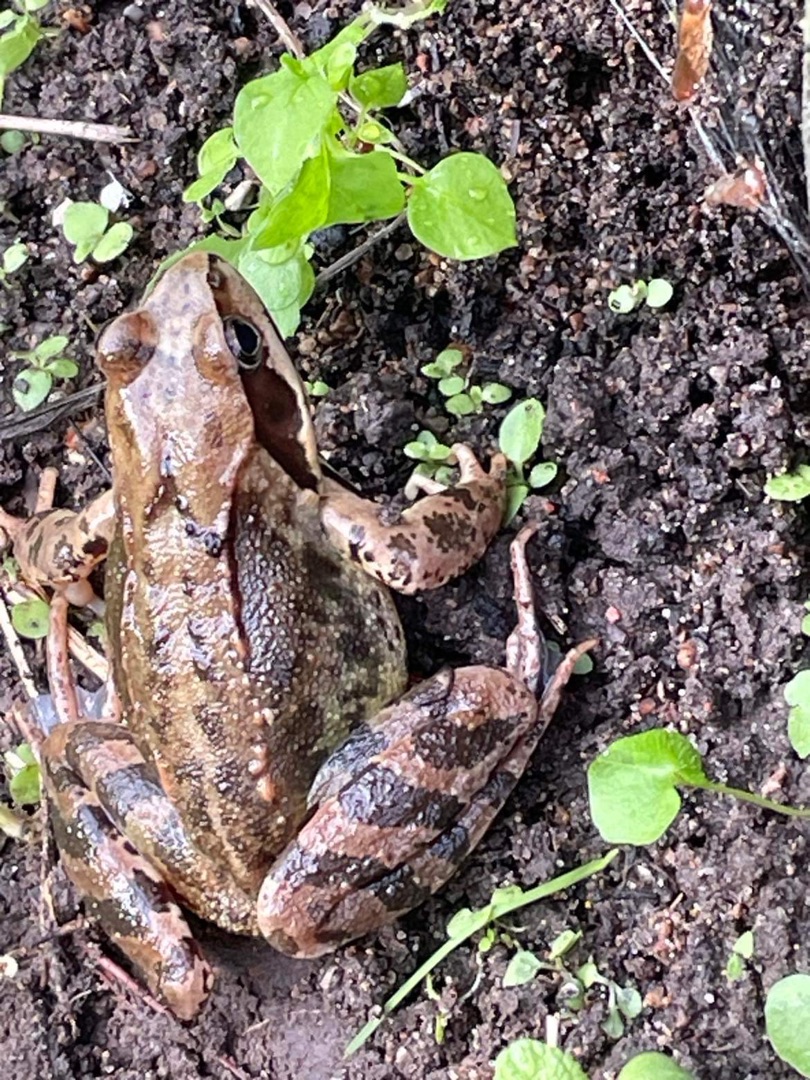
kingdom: Animalia
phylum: Chordata
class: Amphibia
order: Anura
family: Ranidae
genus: Rana
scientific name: Rana temporaria
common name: Butsnudet frø
